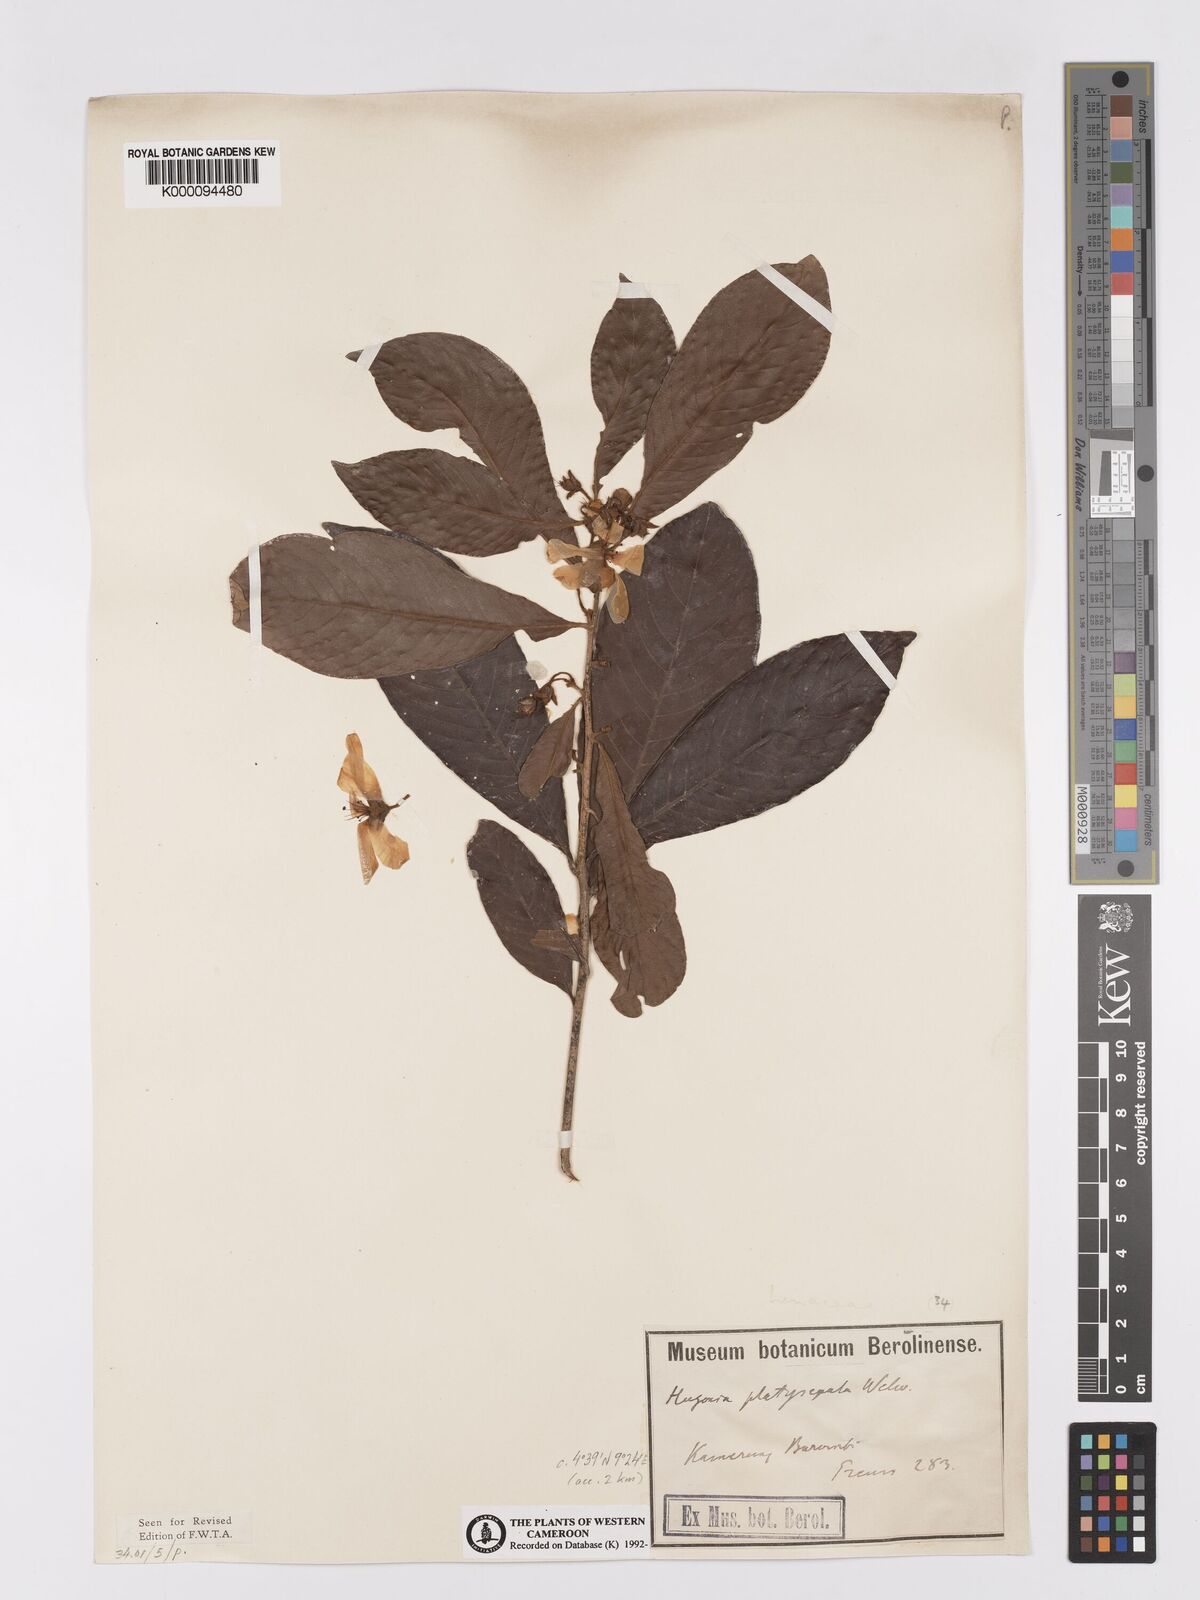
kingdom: Plantae
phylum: Tracheophyta
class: Magnoliopsida
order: Malpighiales
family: Linaceae
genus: Hugonia
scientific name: Hugonia platysepala
